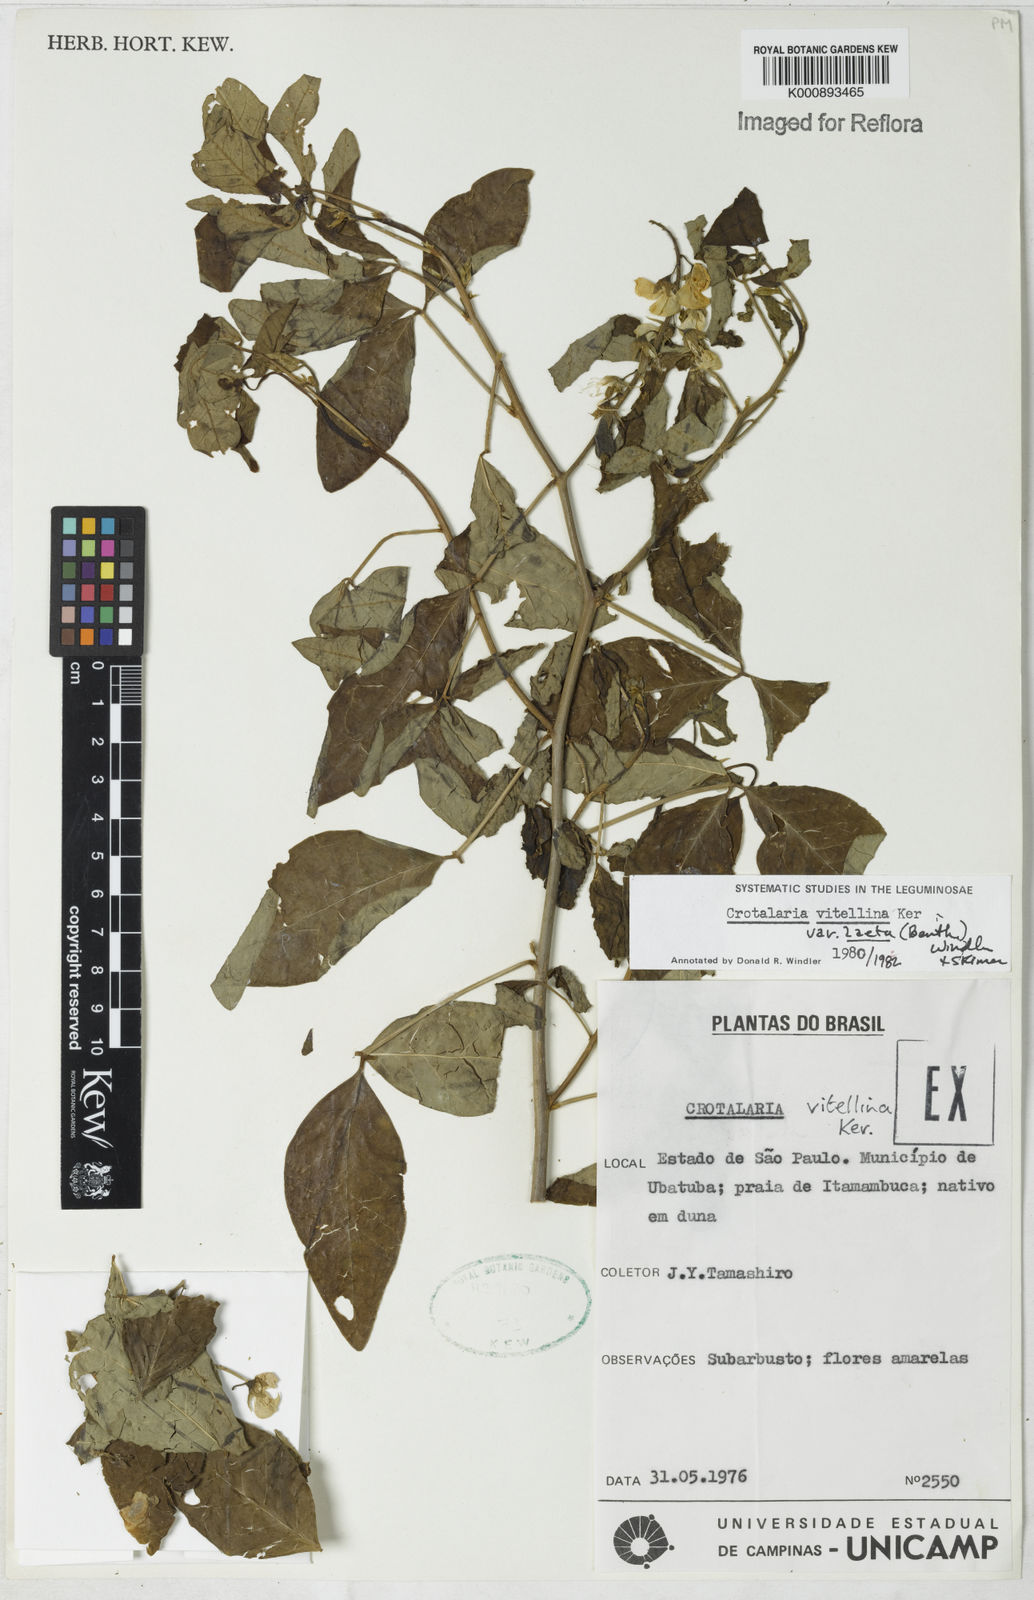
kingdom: Plantae
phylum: Tracheophyta
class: Magnoliopsida
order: Fabales
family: Fabaceae
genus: Crotalaria
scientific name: Crotalaria laeta
